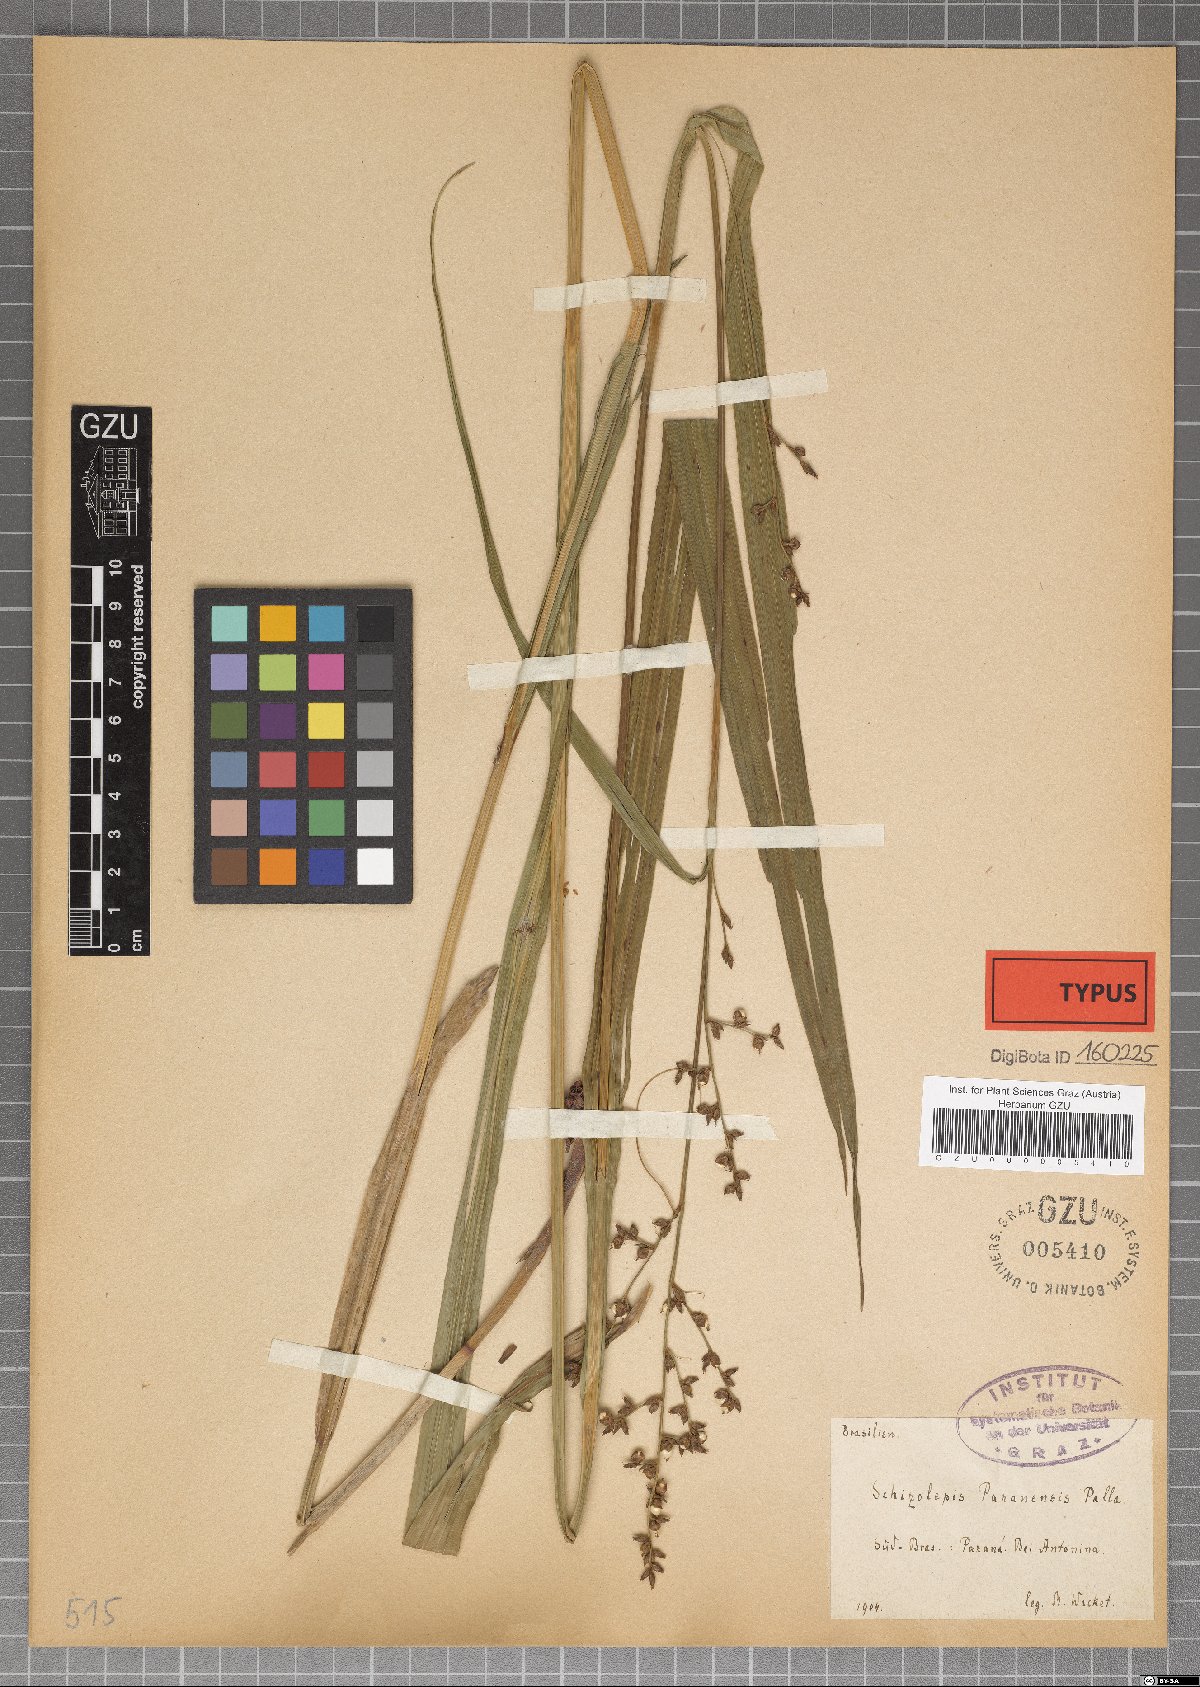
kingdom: Plantae
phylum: Tracheophyta
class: Liliopsida
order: Poales
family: Cyperaceae
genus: Scleria
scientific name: Scleria schiedeana
